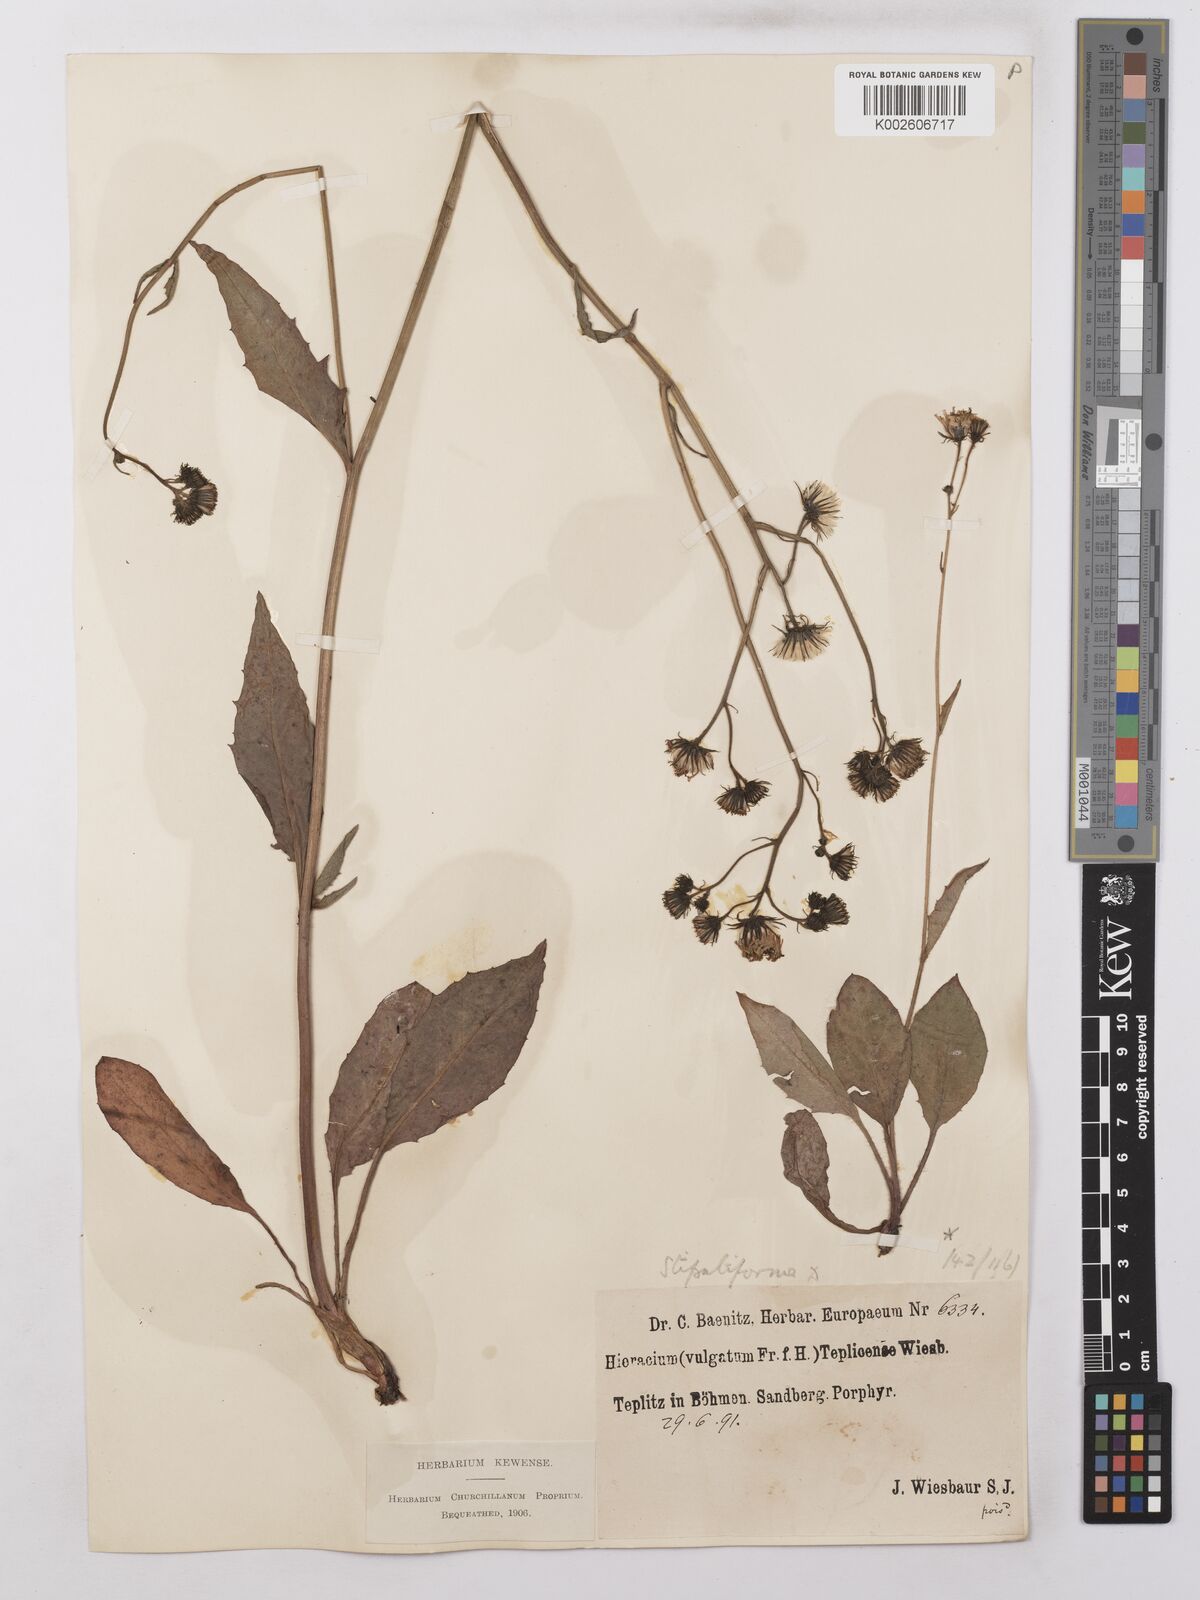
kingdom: Plantae
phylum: Tracheophyta
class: Magnoliopsida
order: Asterales
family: Asteraceae
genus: Hieracium
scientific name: Hieracium lachenalii
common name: Common hawkweed
